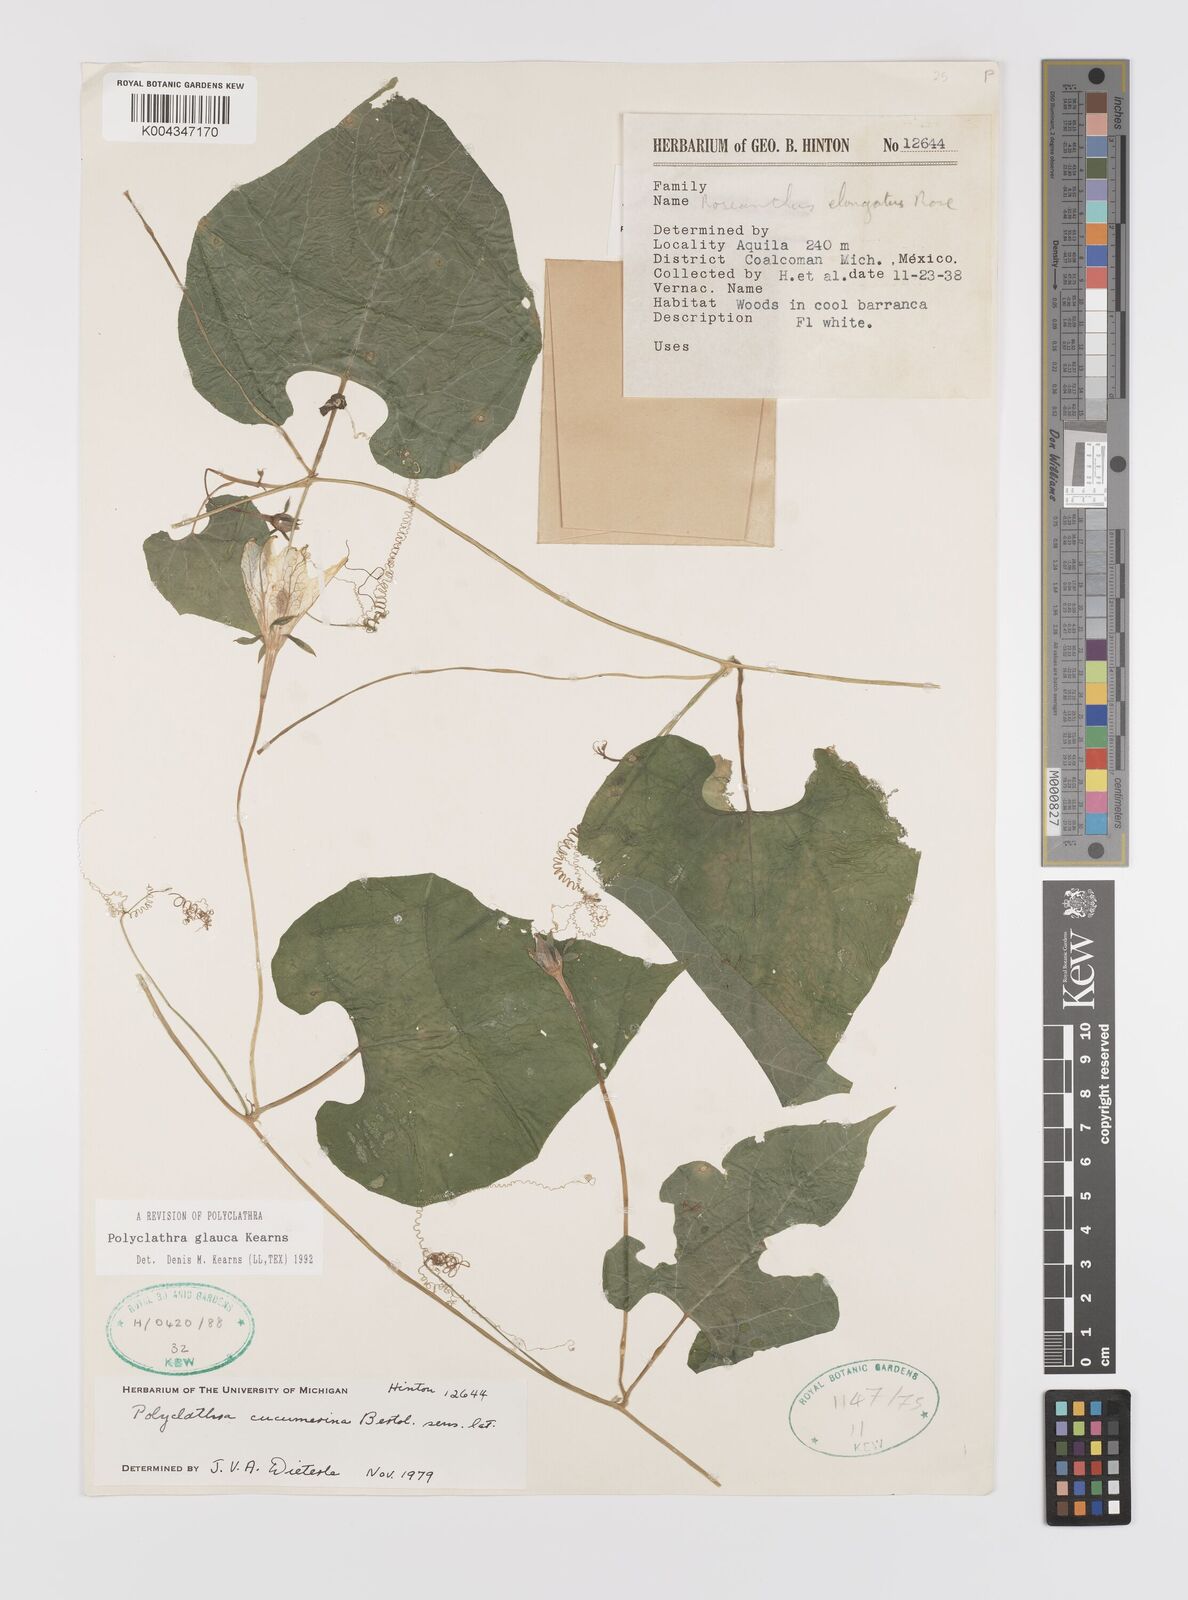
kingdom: Plantae
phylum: Tracheophyta
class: Magnoliopsida
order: Cucurbitales
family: Cucurbitaceae
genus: Polyclathra
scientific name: Polyclathra
